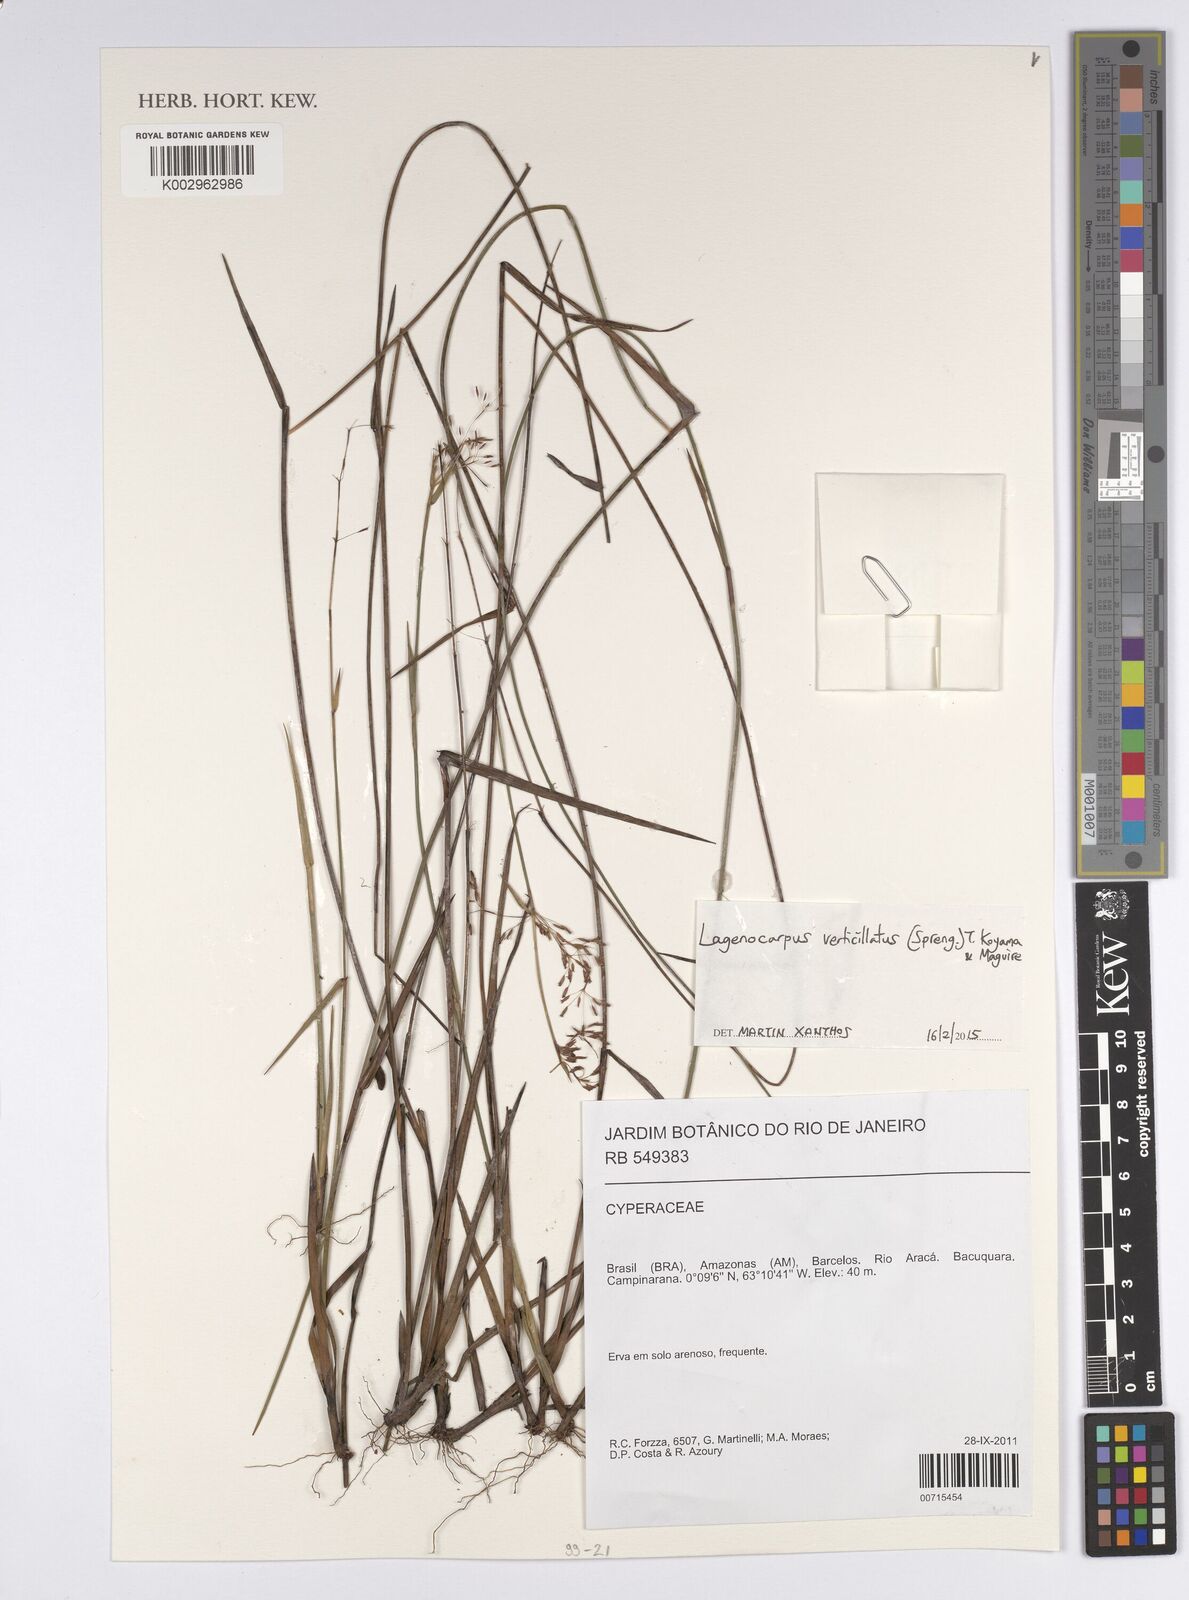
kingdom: Plantae
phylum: Tracheophyta
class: Liliopsida
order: Poales
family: Cyperaceae
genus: Cryptangium
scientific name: Cryptangium verticillatum
